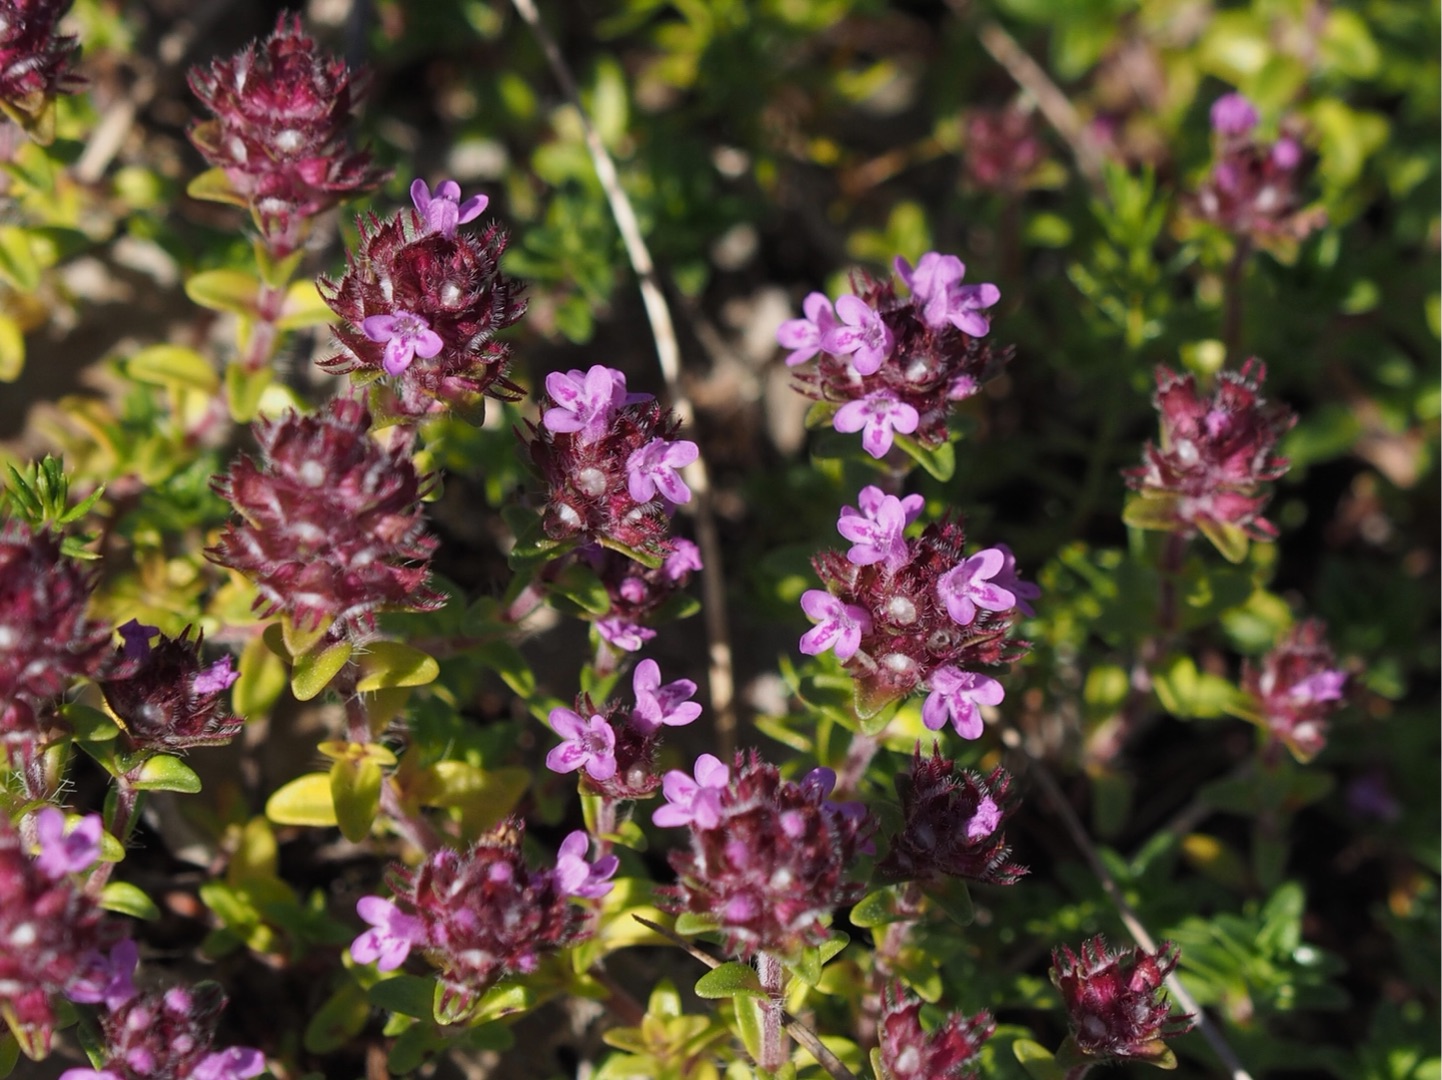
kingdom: Plantae
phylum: Tracheophyta
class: Magnoliopsida
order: Lamiales
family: Lamiaceae
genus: Thymus
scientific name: Thymus serpyllum
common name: Smalbladet timian
